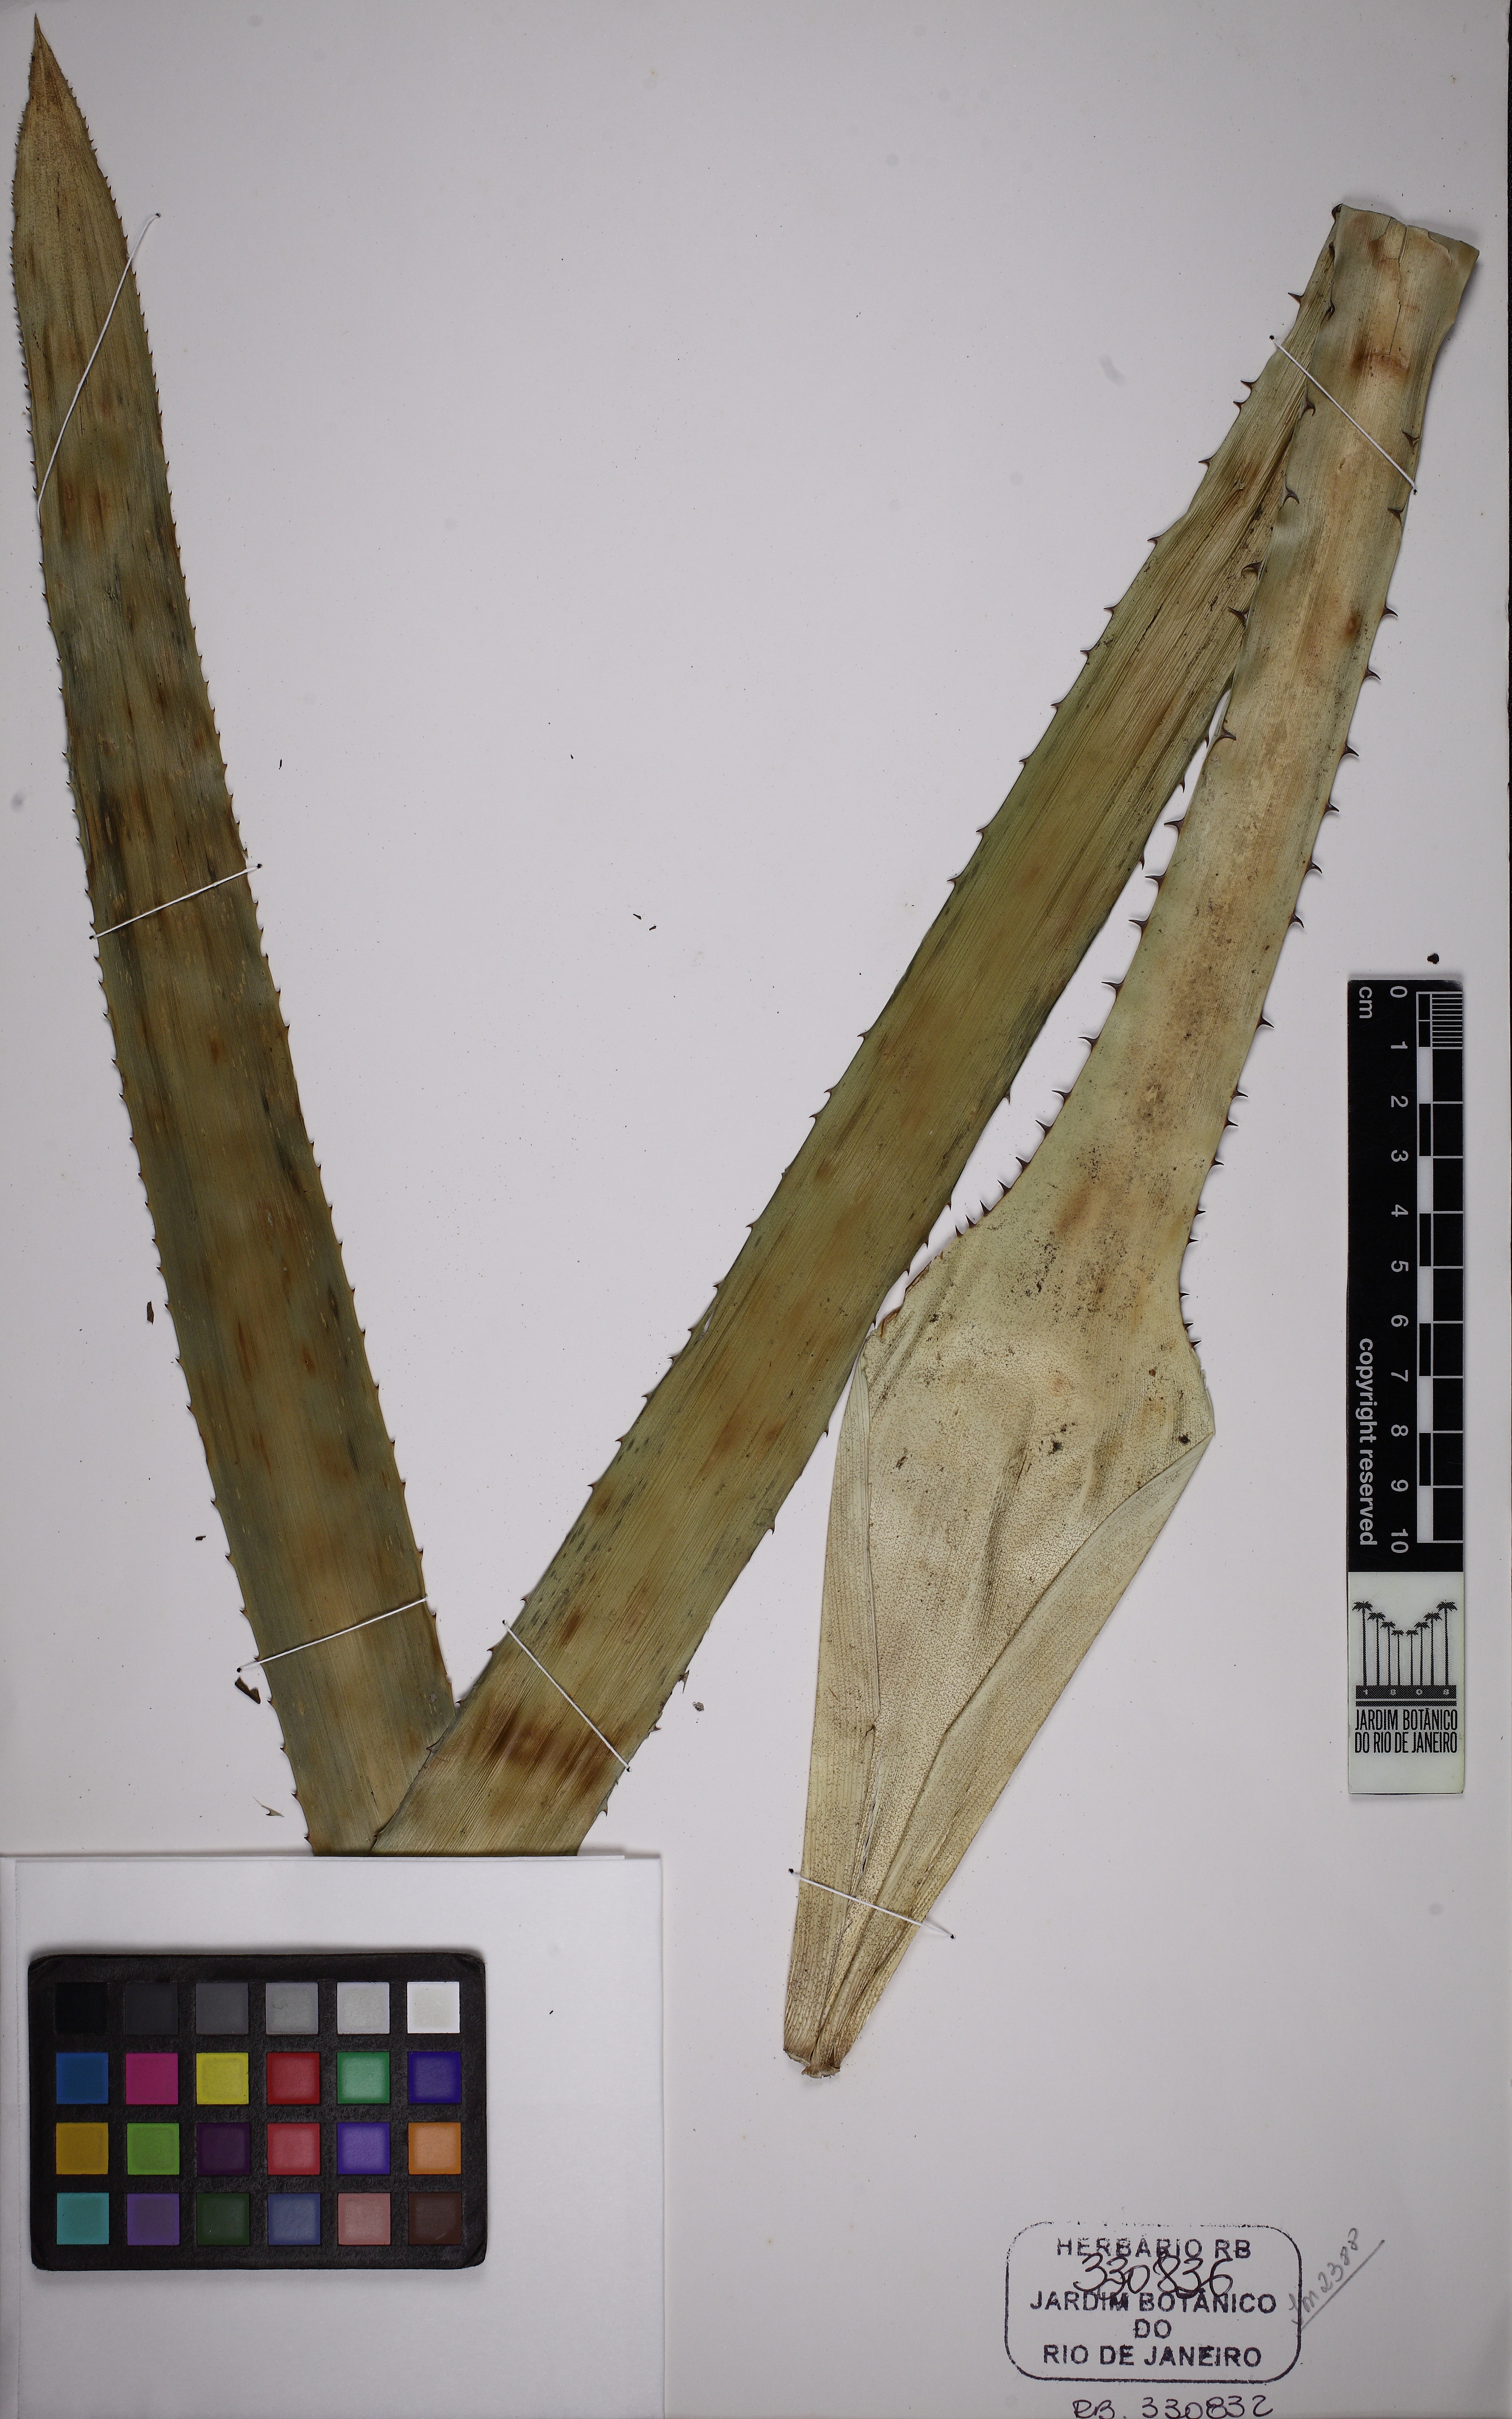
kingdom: Plantae
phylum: Tracheophyta
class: Liliopsida
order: Poales
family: Bromeliaceae
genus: Wittrockia
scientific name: Wittrockia cyathiformis
